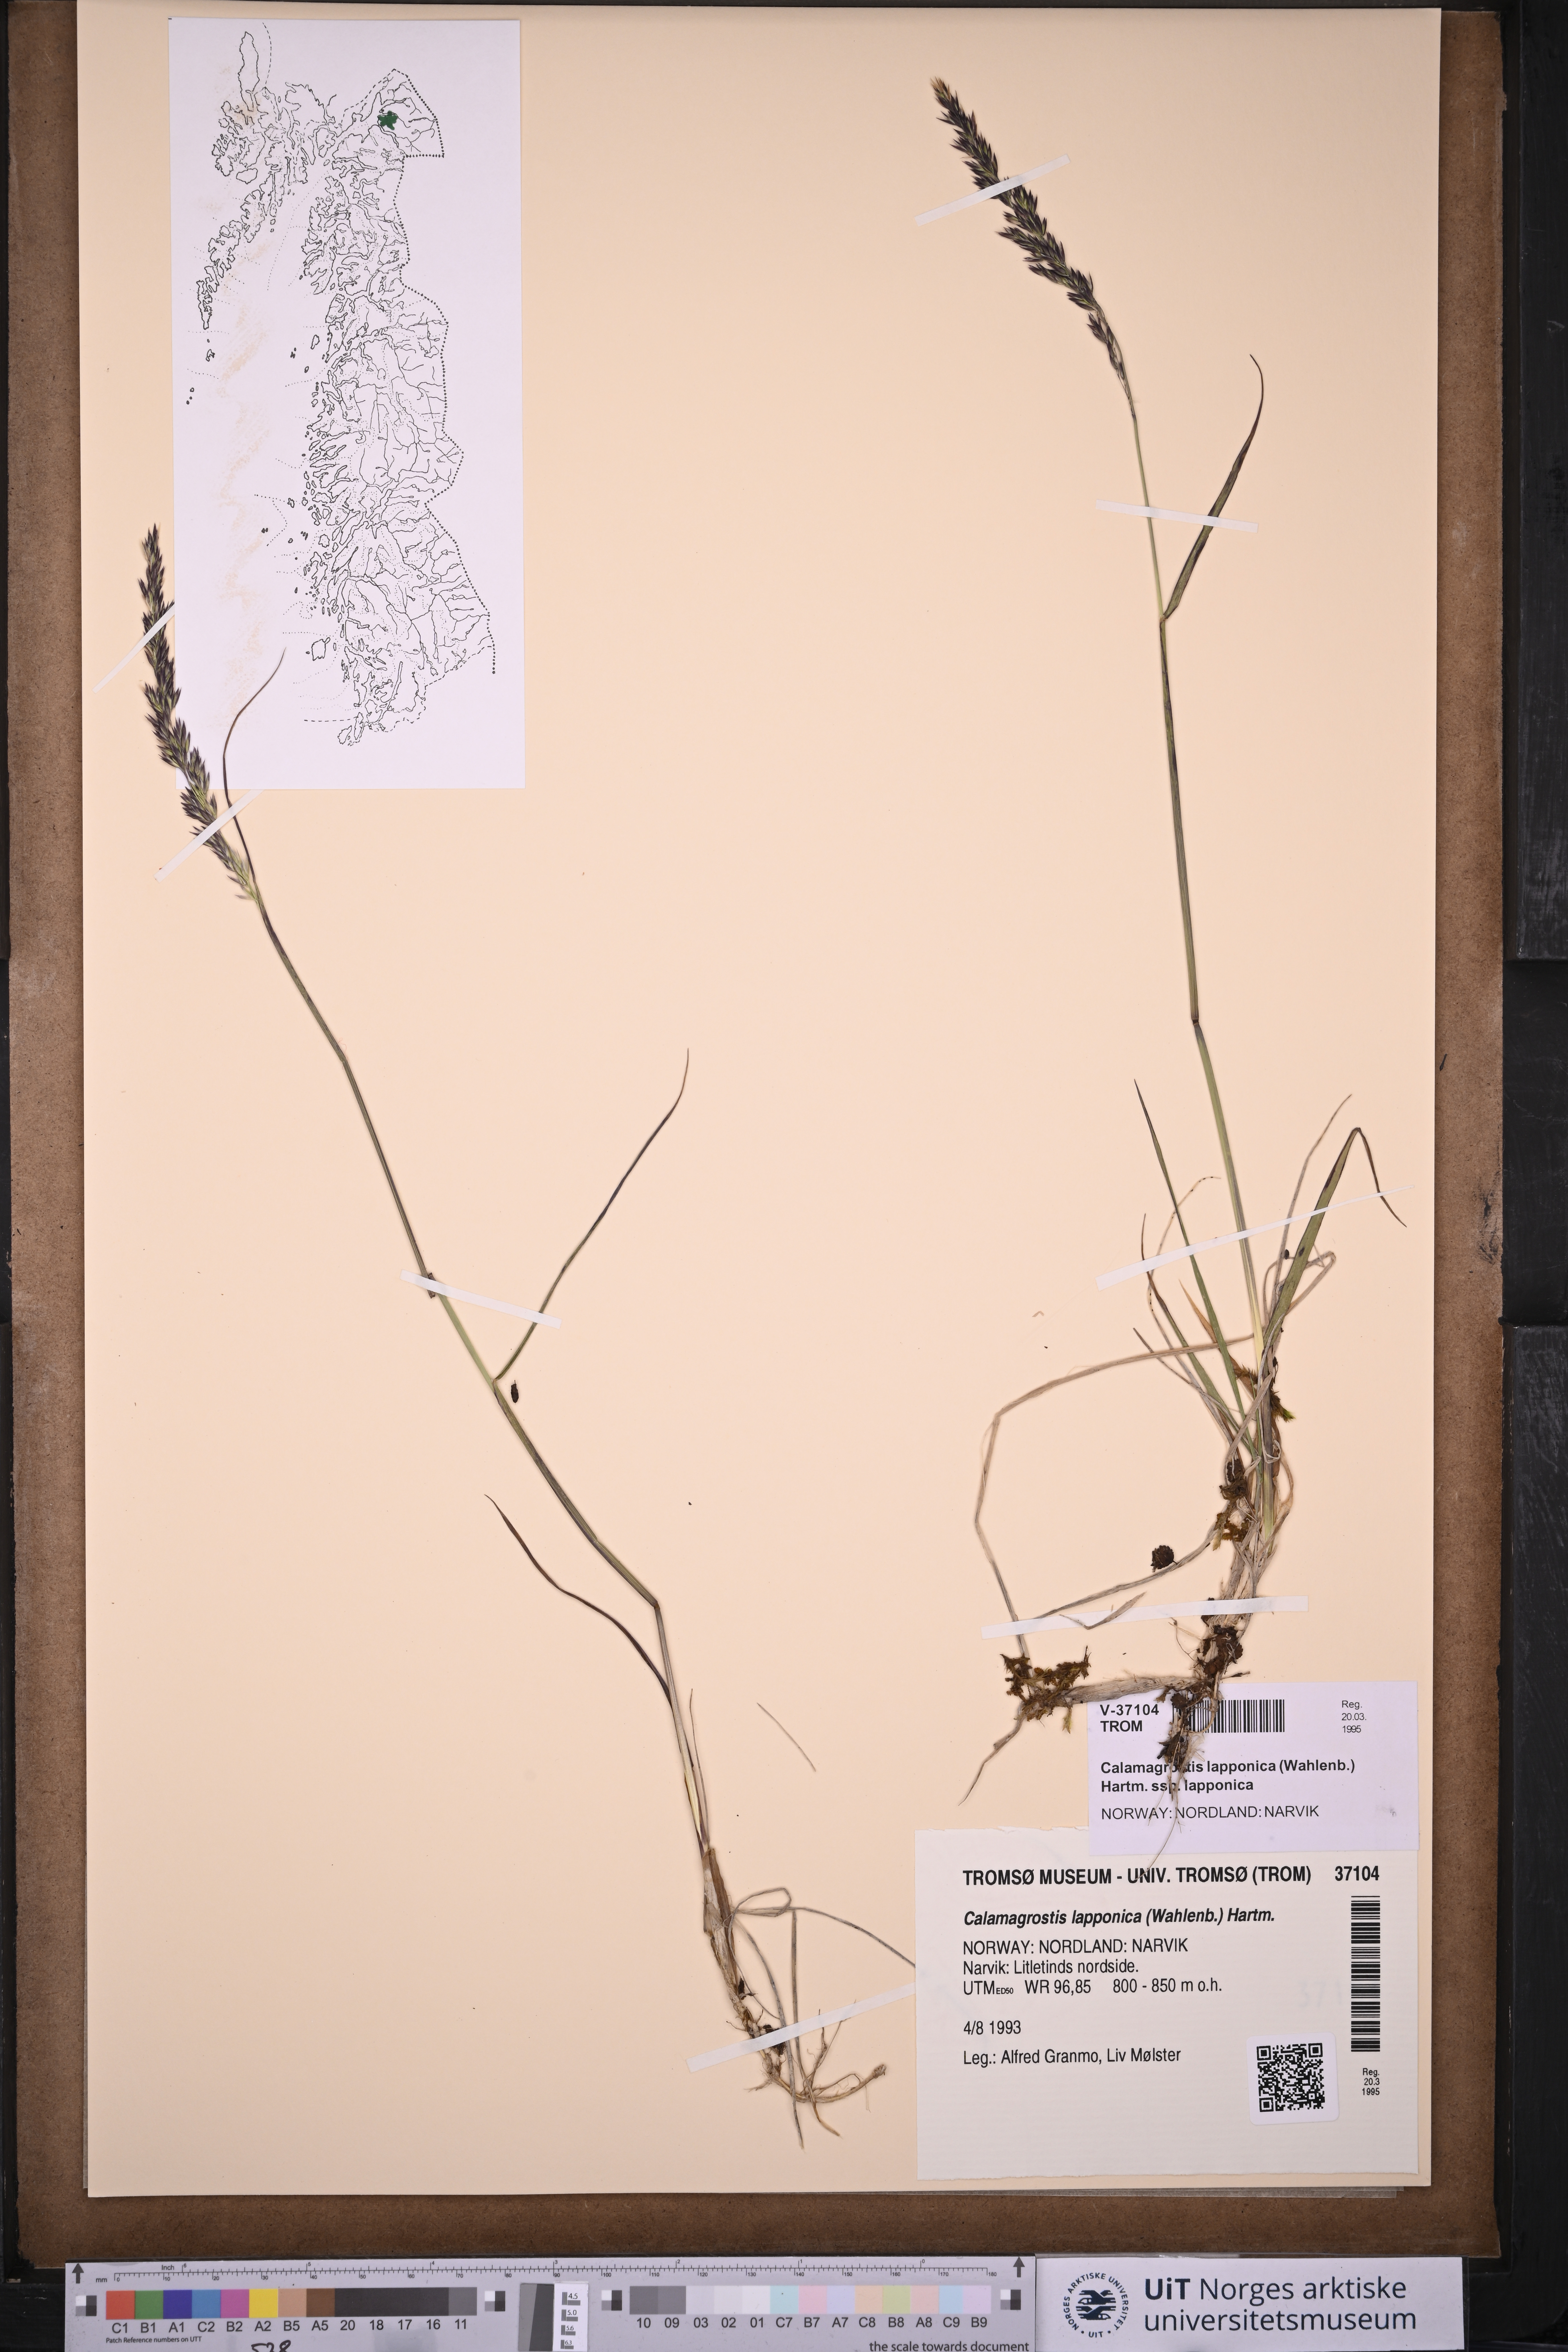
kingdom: Plantae
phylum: Tracheophyta
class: Liliopsida
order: Poales
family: Poaceae
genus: Calamagrostis
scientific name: Calamagrostis lapponica
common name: Lapland reedgrass
